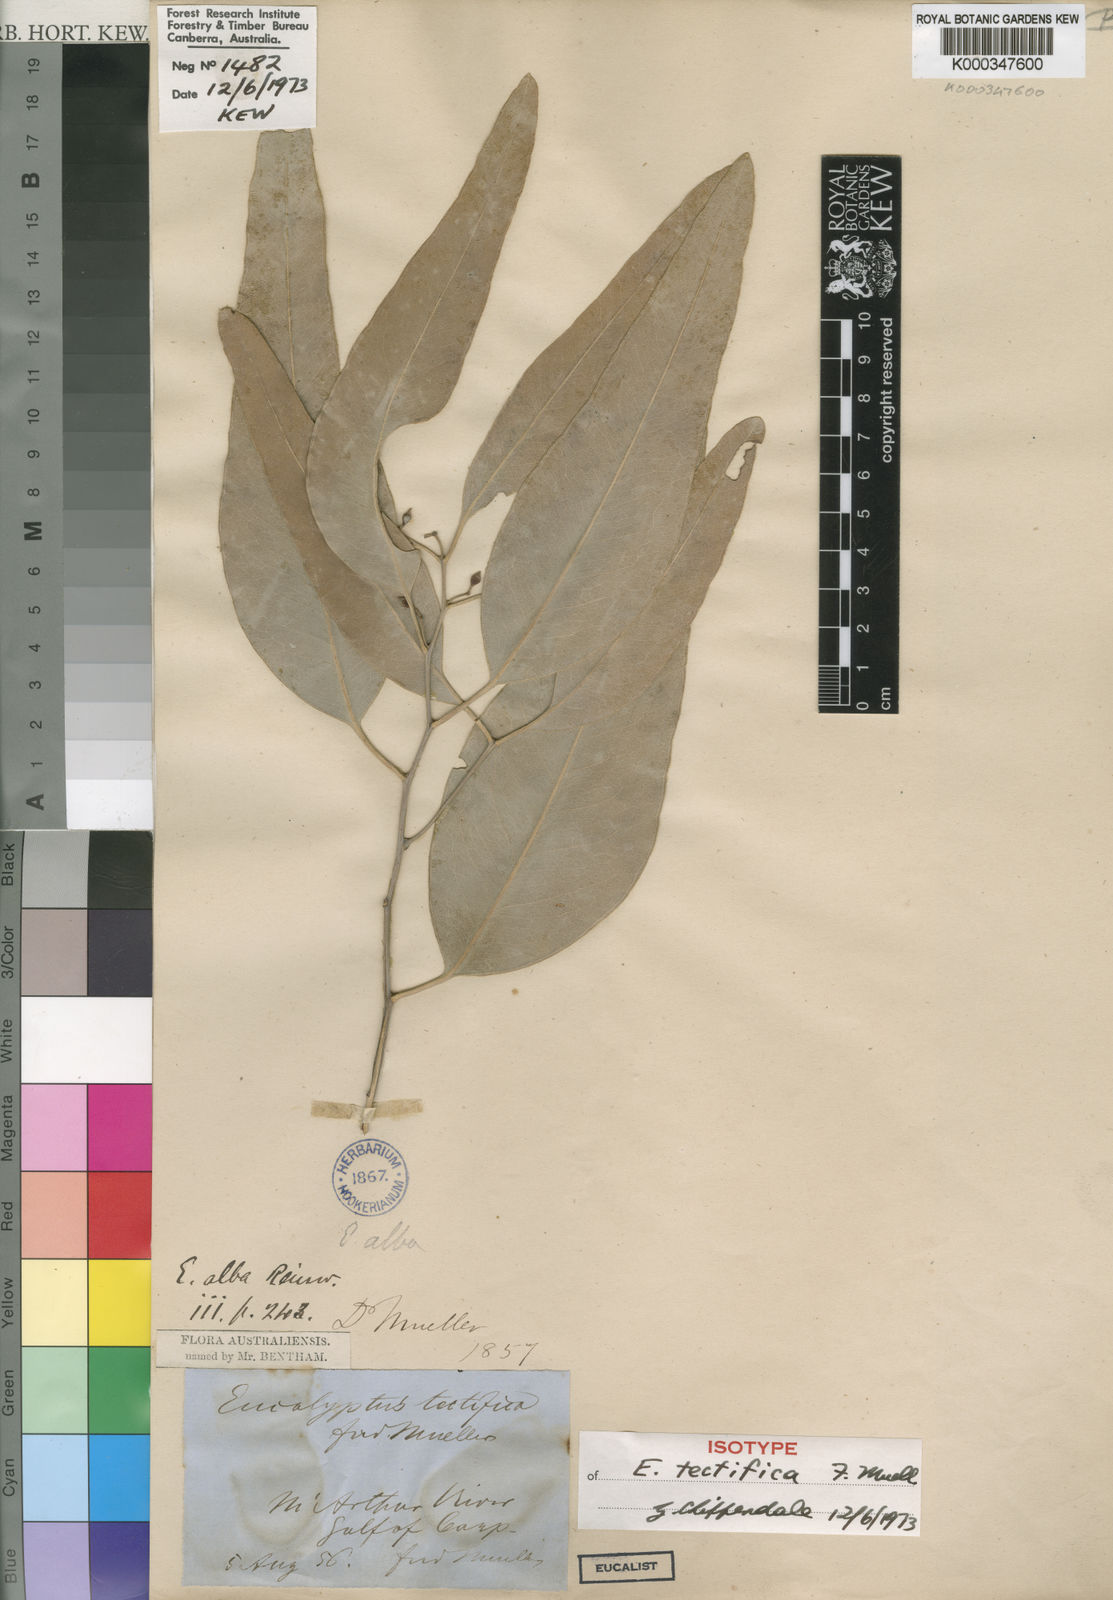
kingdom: Plantae
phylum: Tracheophyta
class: Magnoliopsida
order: Myrtales
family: Myrtaceae
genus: Eucalyptus
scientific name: Eucalyptus tectifica
